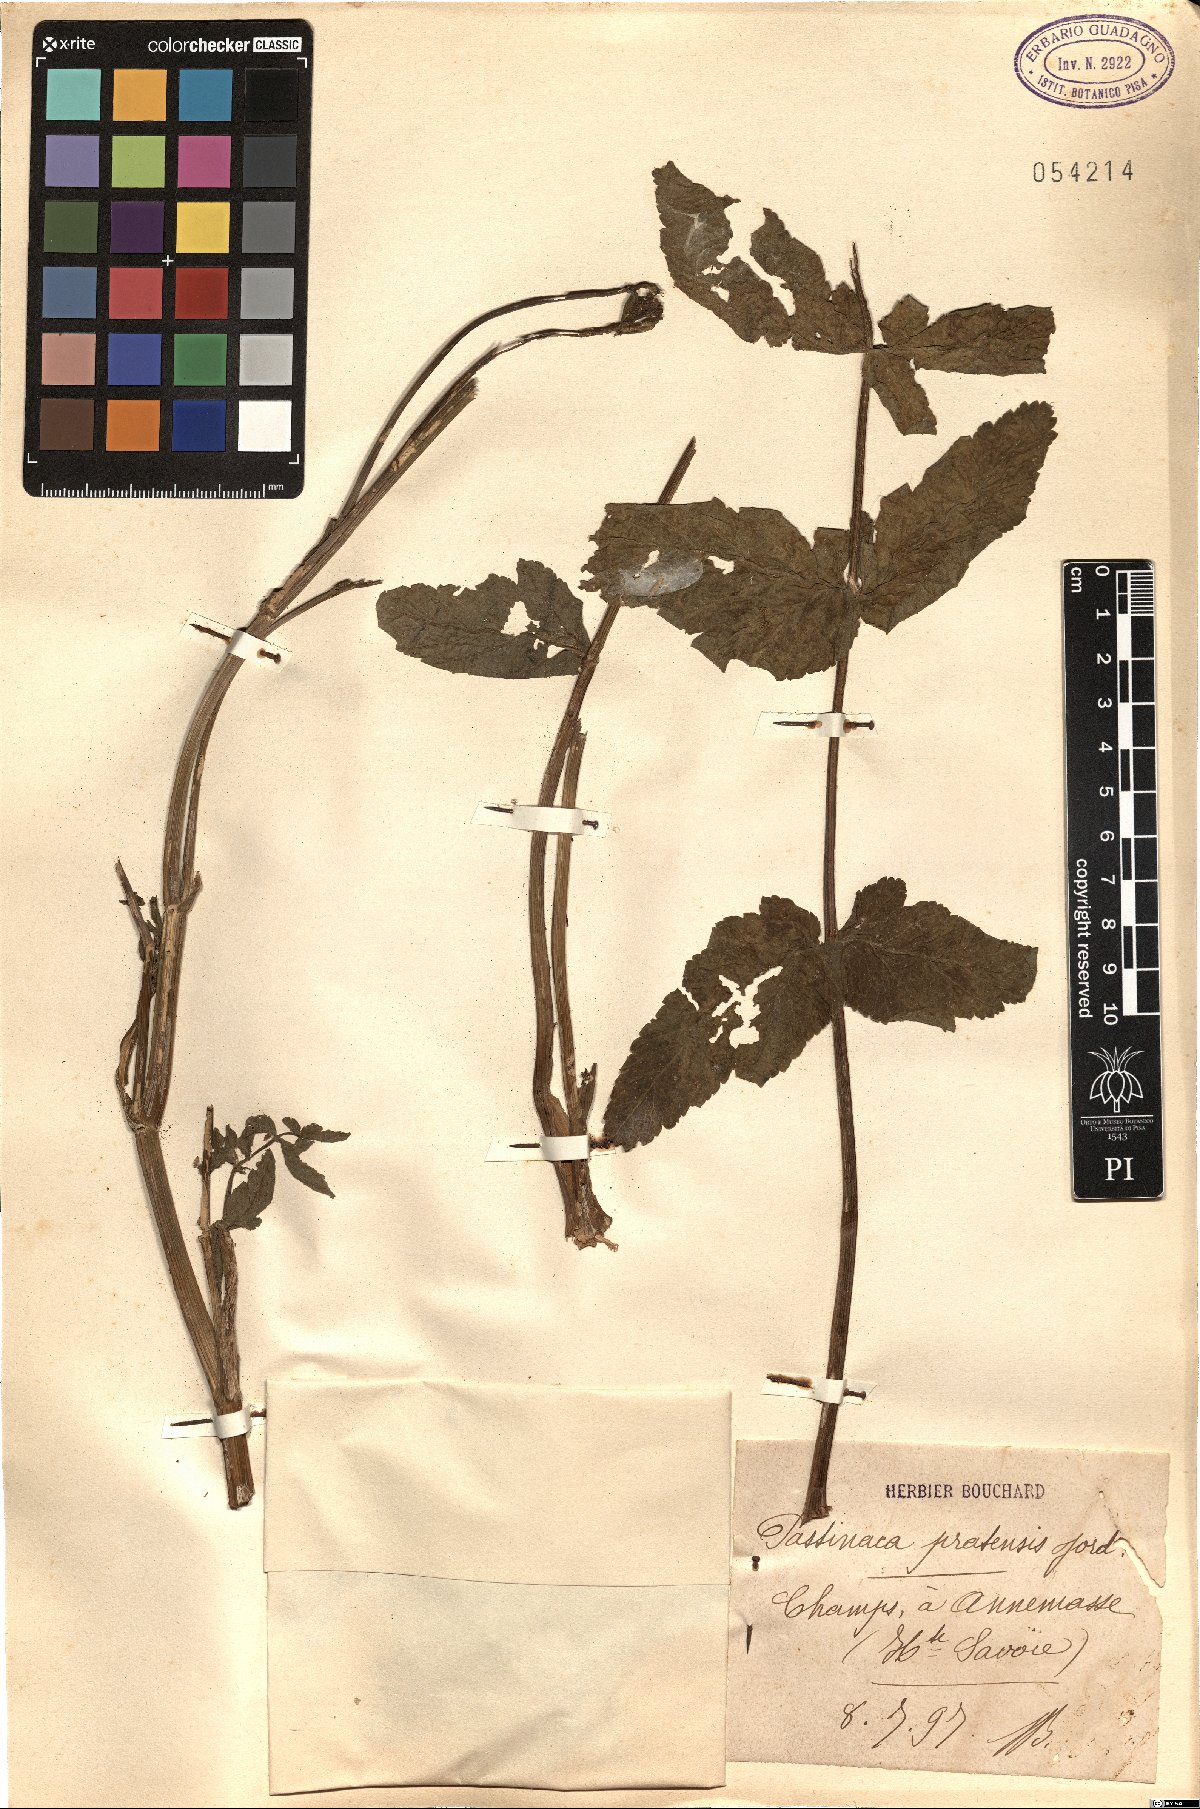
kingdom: Plantae
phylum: Tracheophyta
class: Magnoliopsida
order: Apiales
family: Apiaceae
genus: Pastinaca
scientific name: Pastinaca sativa
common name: Wild parsnip
